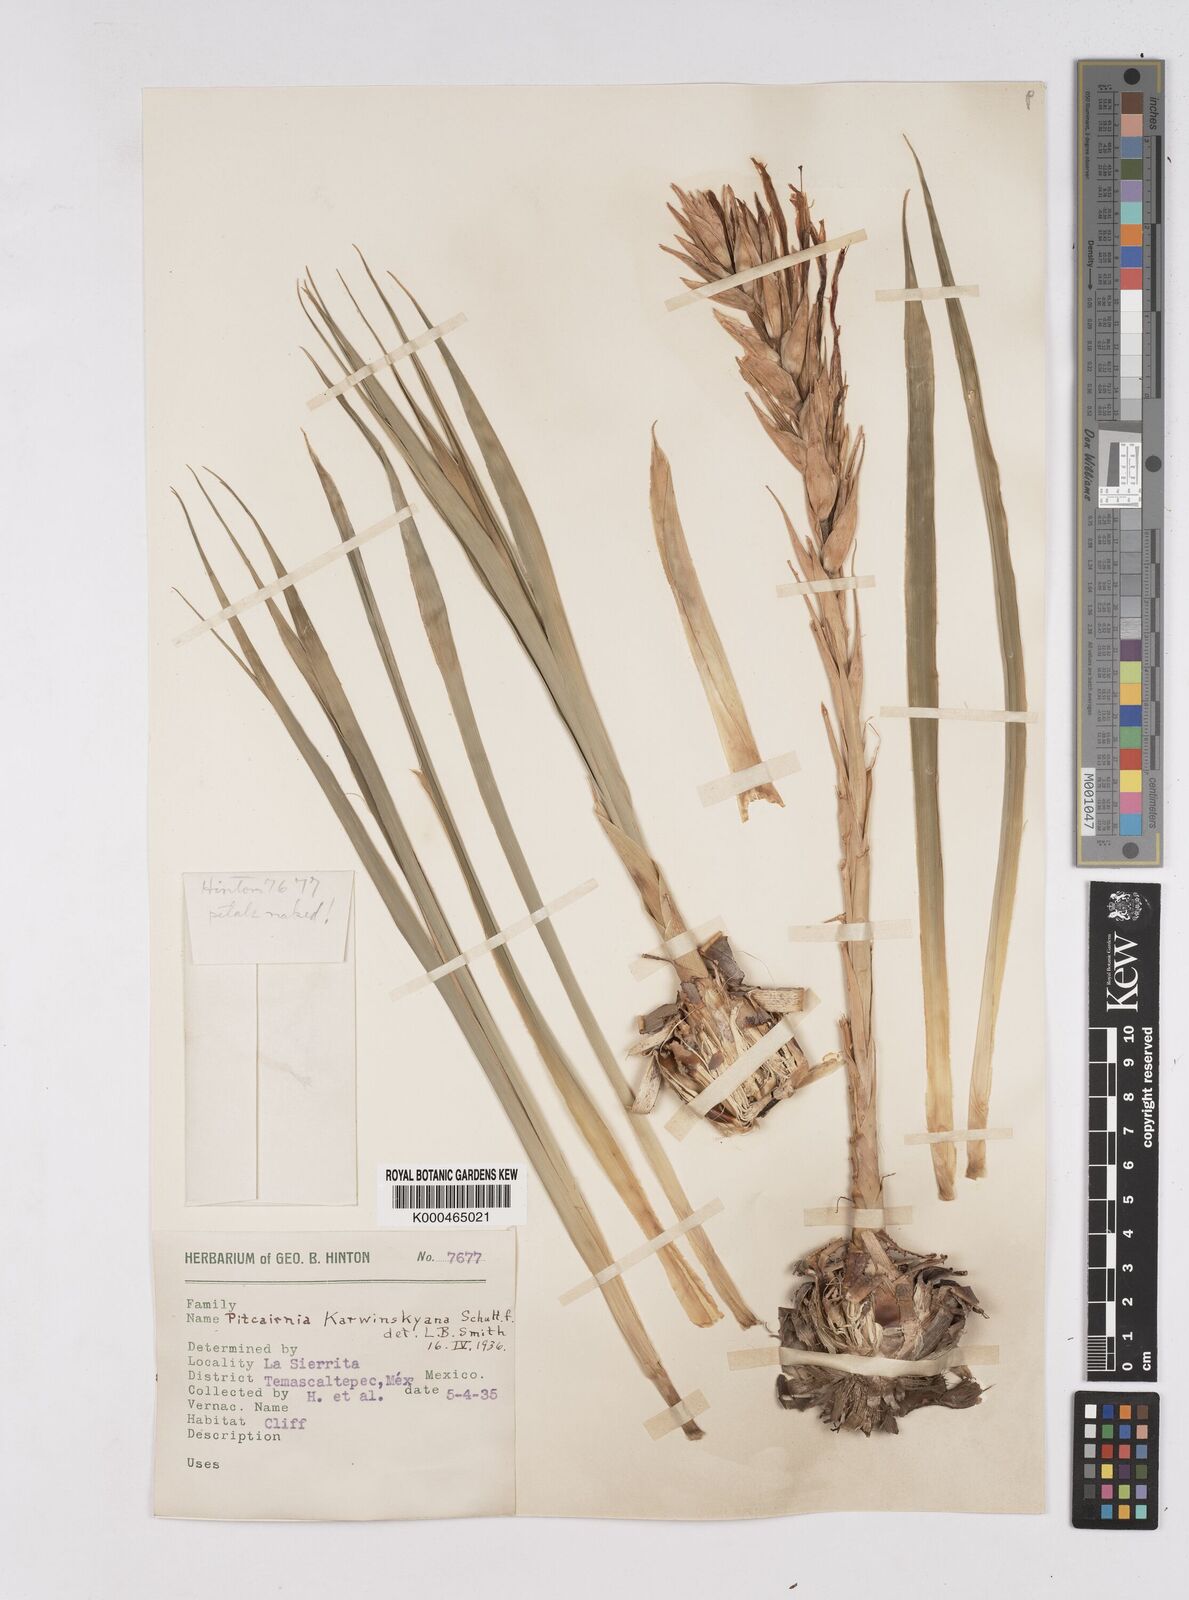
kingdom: Plantae
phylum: Tracheophyta
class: Liliopsida
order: Poales
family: Bromeliaceae
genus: Pitcairnia
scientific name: Pitcairnia karwinskyana
